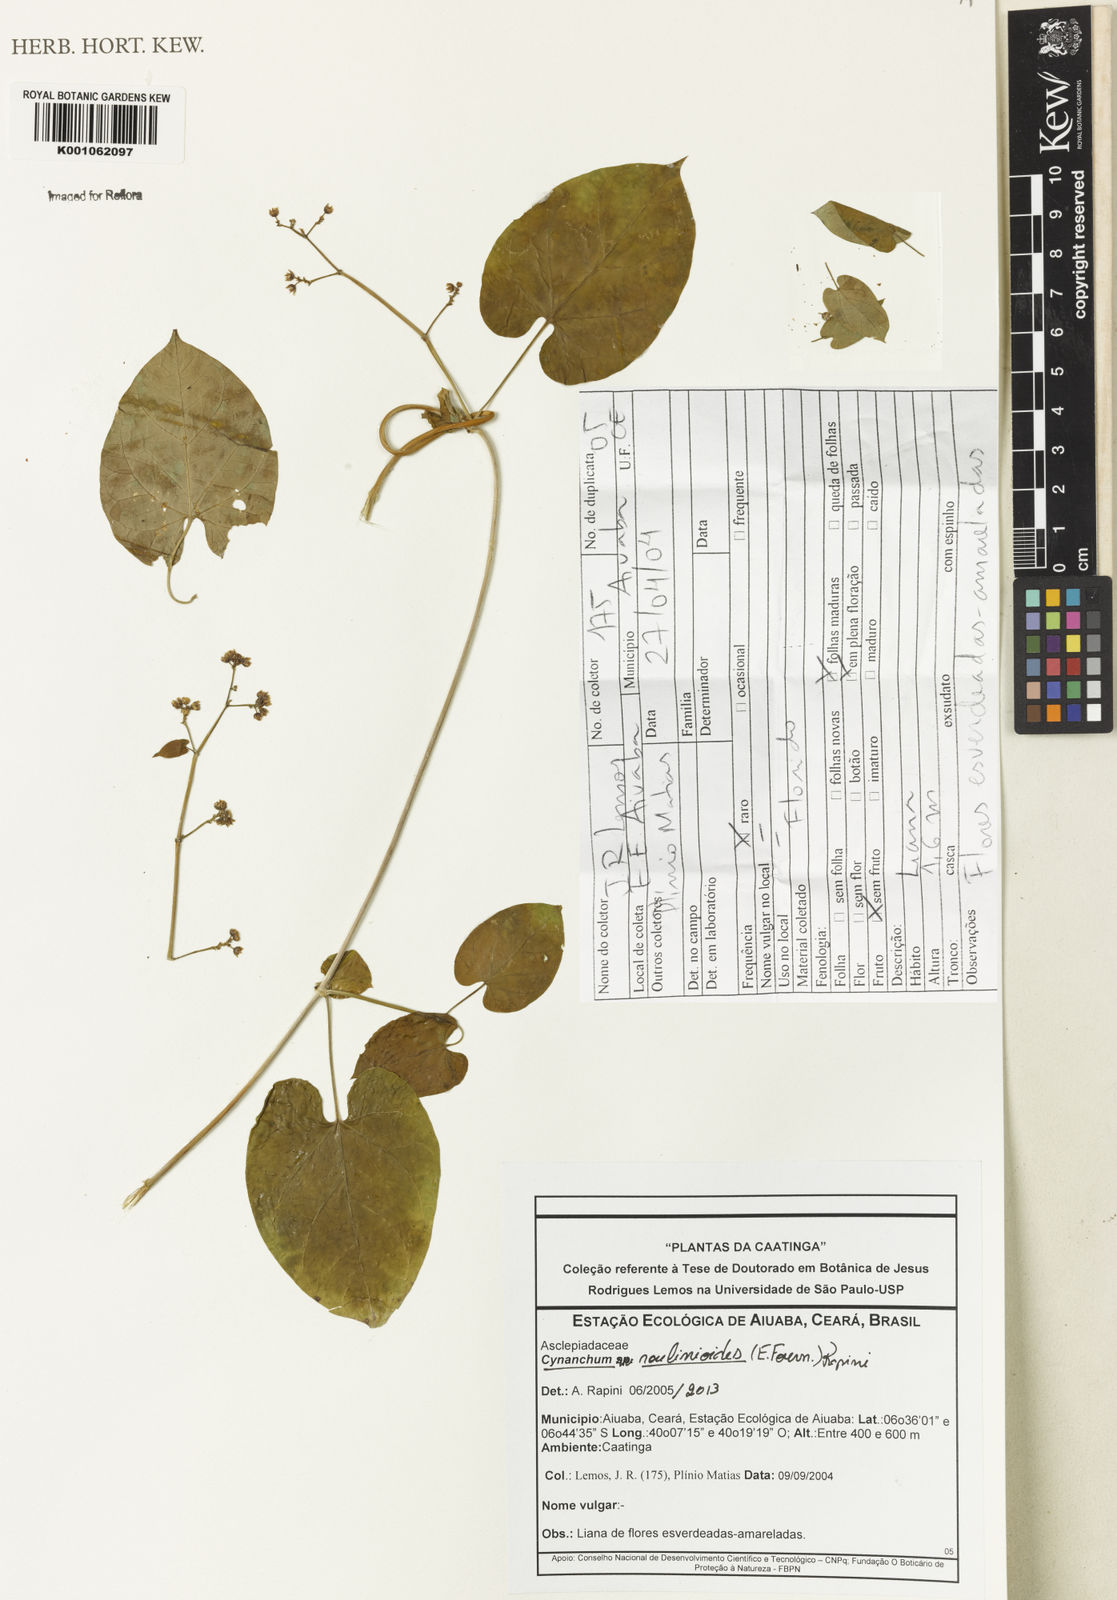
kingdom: Plantae
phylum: Tracheophyta
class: Magnoliopsida
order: Gentianales
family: Apocynaceae
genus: Cynanchum
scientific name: Cynanchum
